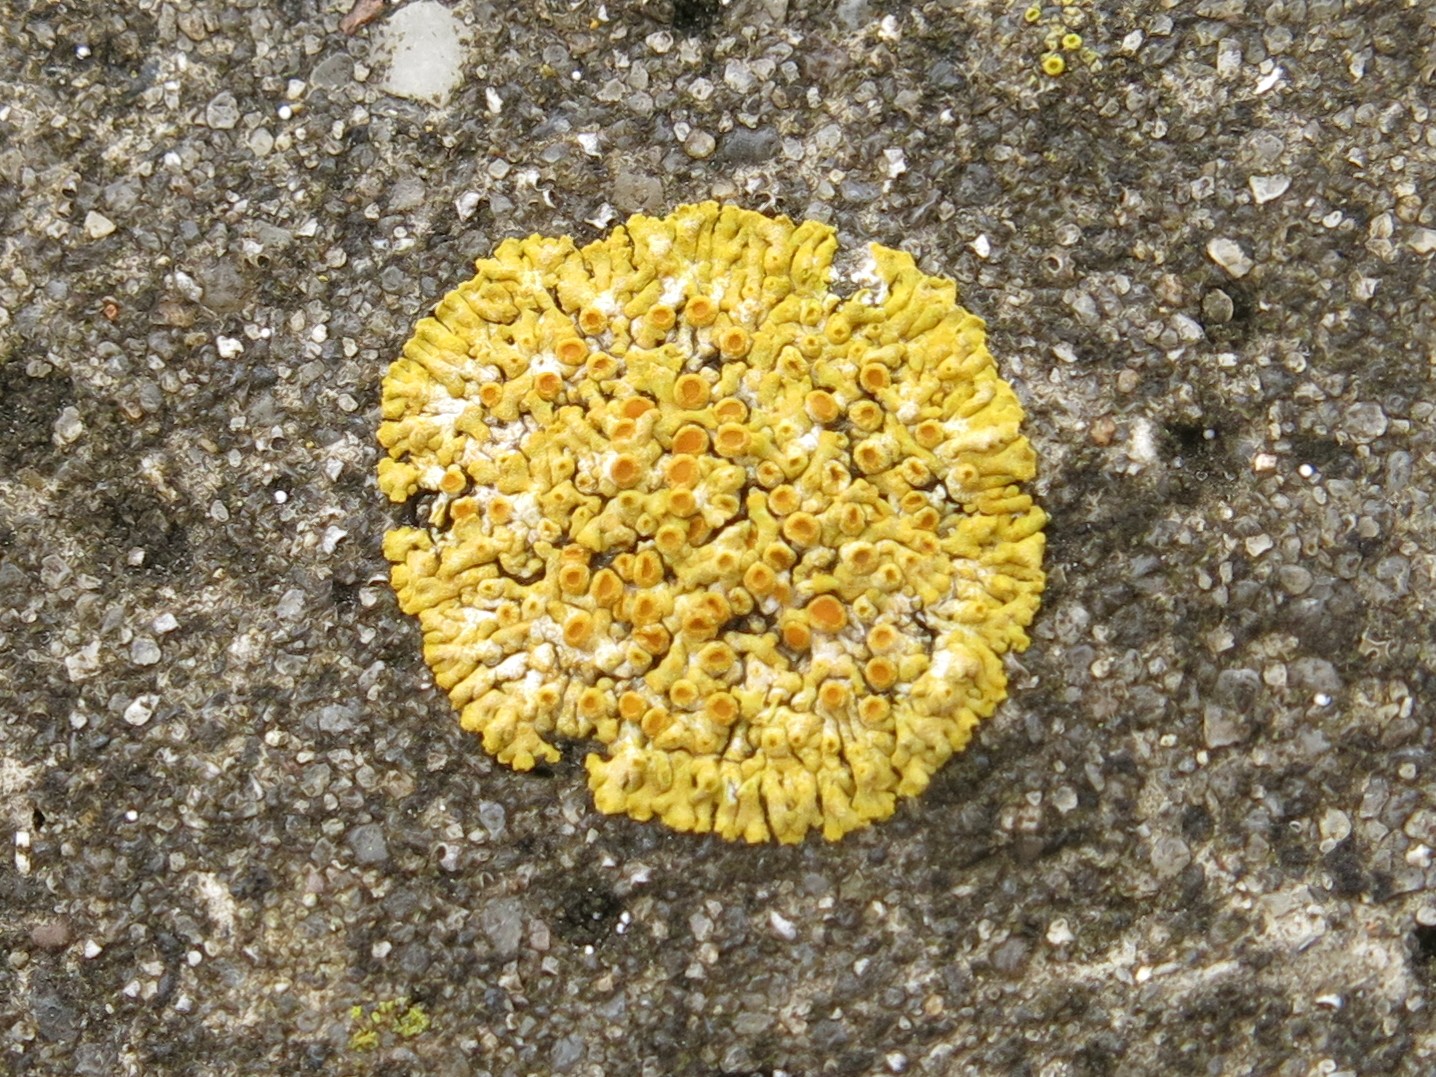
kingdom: Fungi
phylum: Ascomycota
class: Lecanoromycetes
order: Teloschistales
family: Teloschistaceae
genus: Variospora
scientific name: Variospora flavescens
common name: kalk-orangelav
